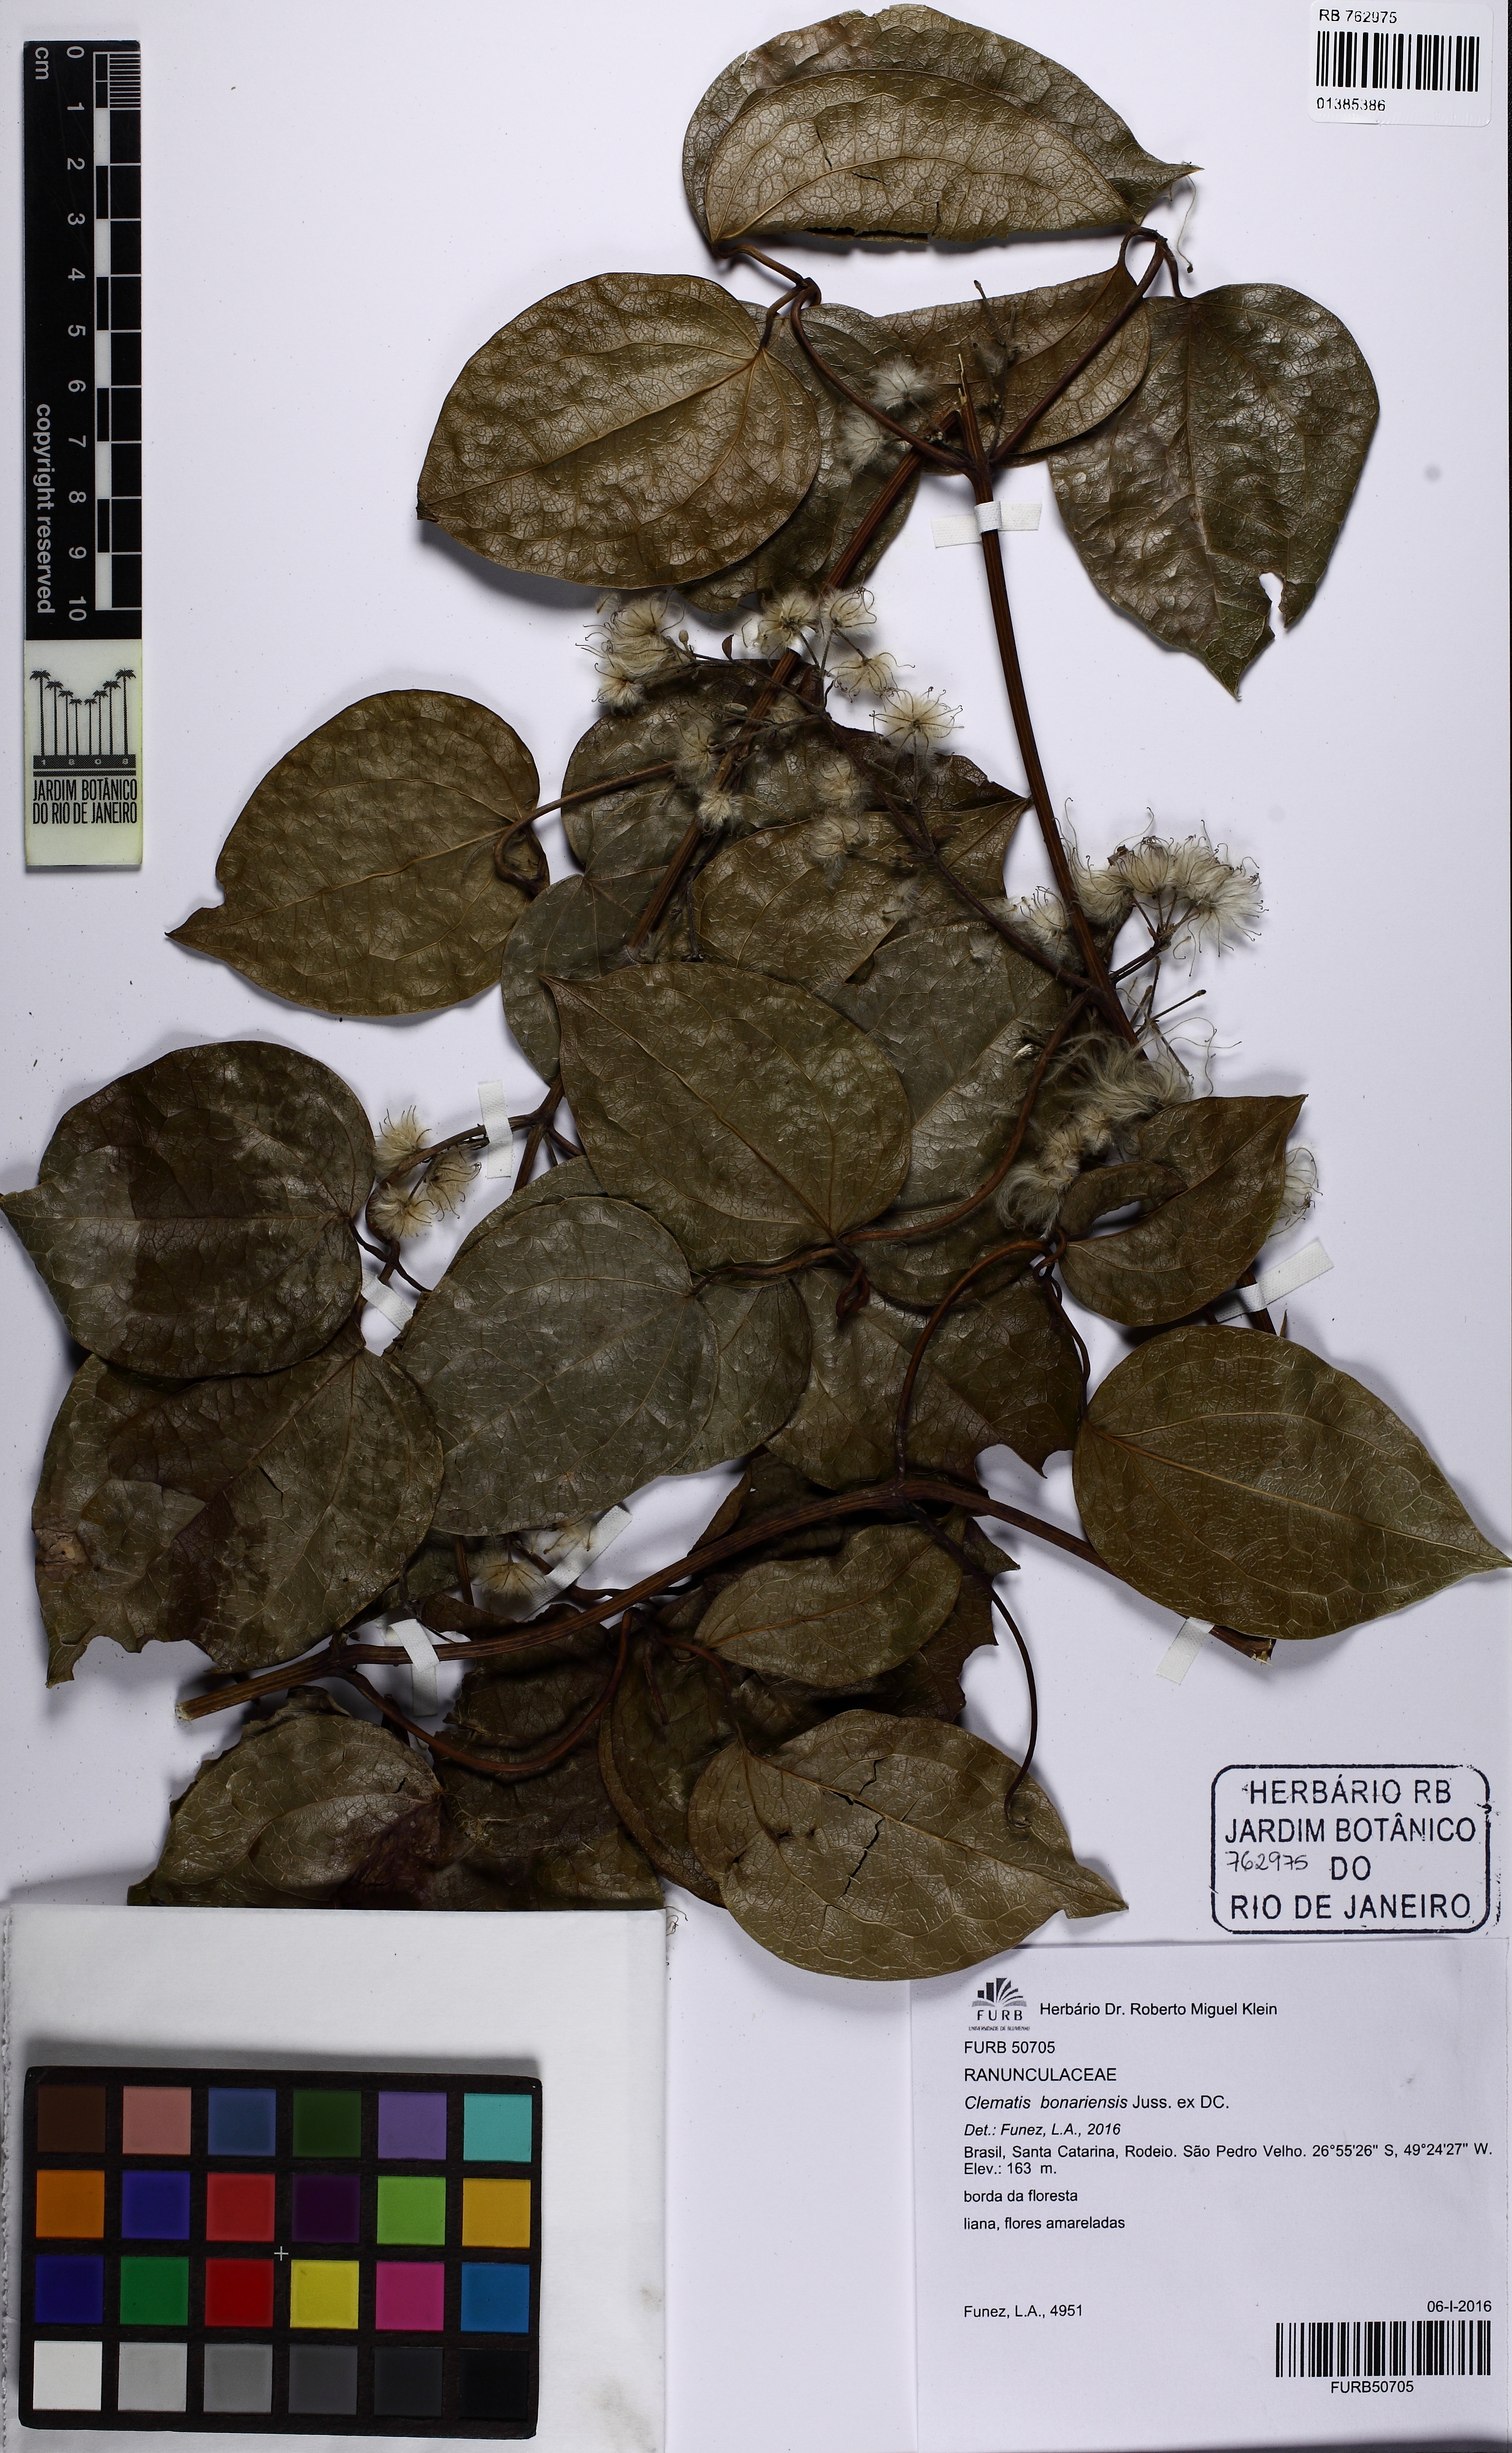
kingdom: Plantae
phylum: Tracheophyta
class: Magnoliopsida
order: Ranunculales
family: Ranunculaceae
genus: Clematis
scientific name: Clematis bonariensis
